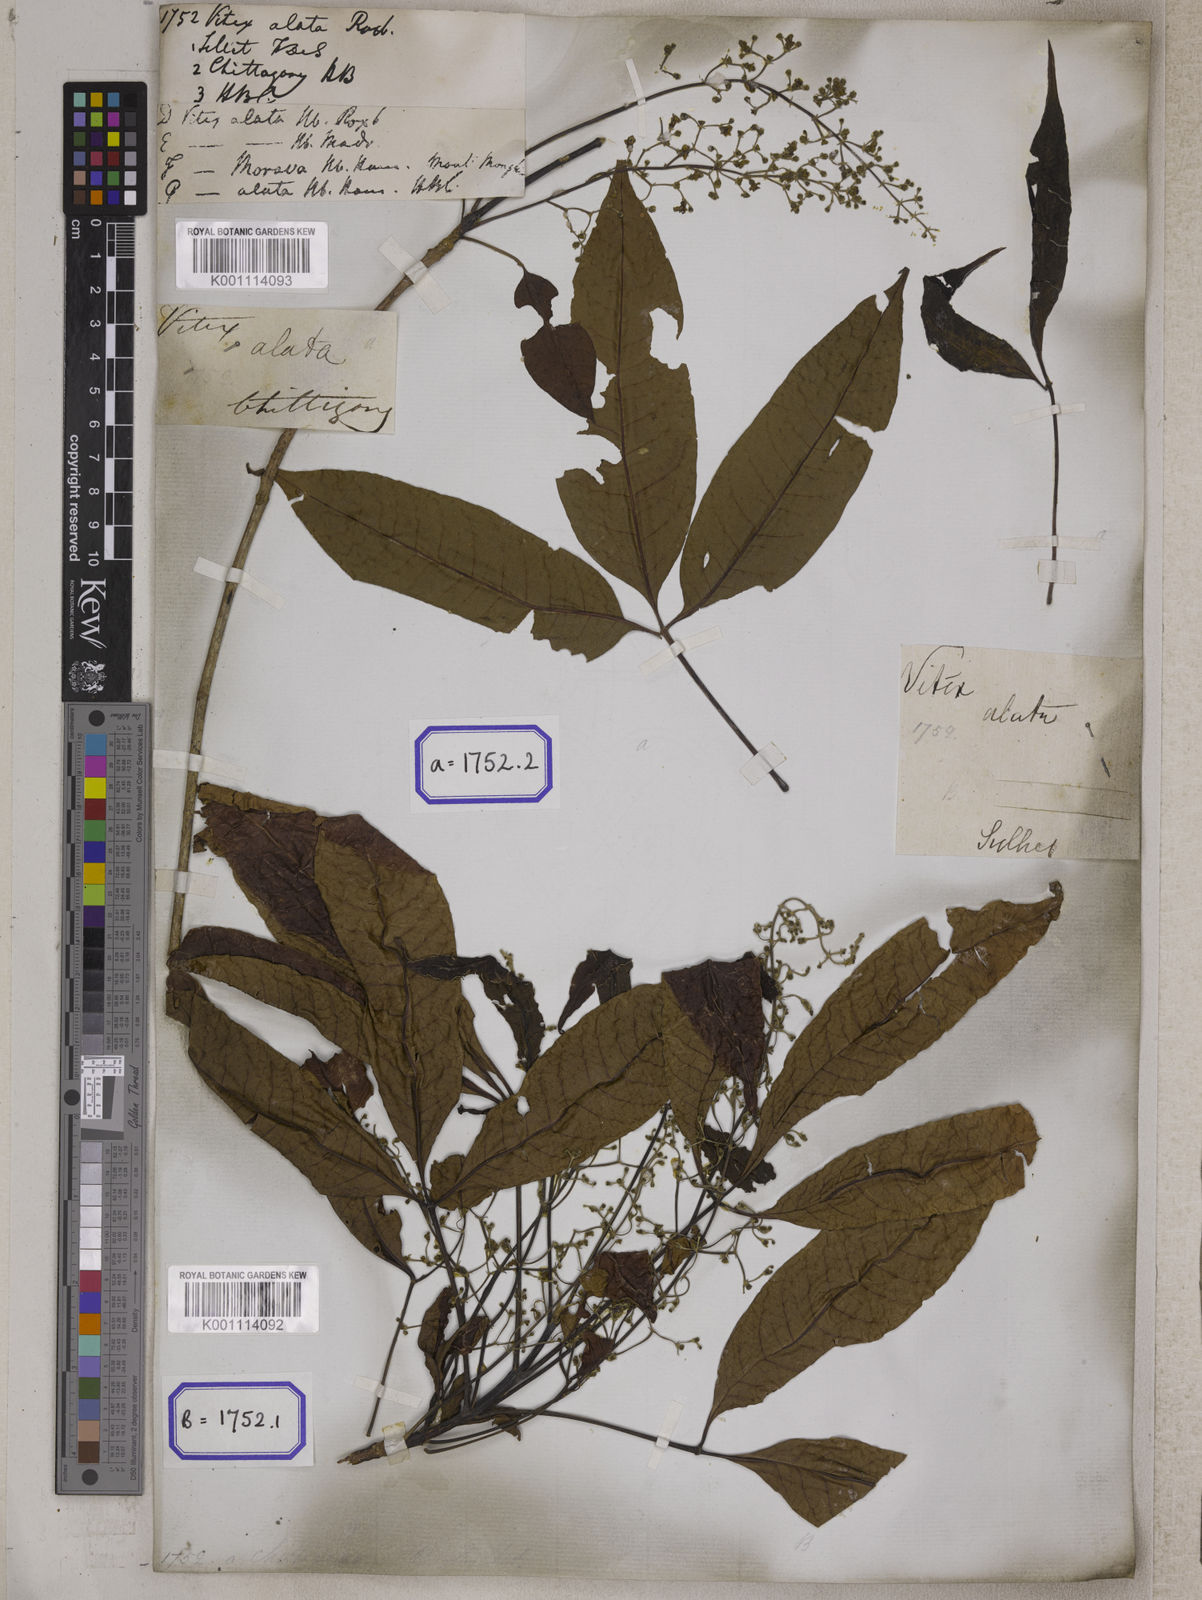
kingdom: Plantae
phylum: Tracheophyta
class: Magnoliopsida
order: Lamiales
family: Lamiaceae
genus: Vitex
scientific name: Vitex peduncularis
